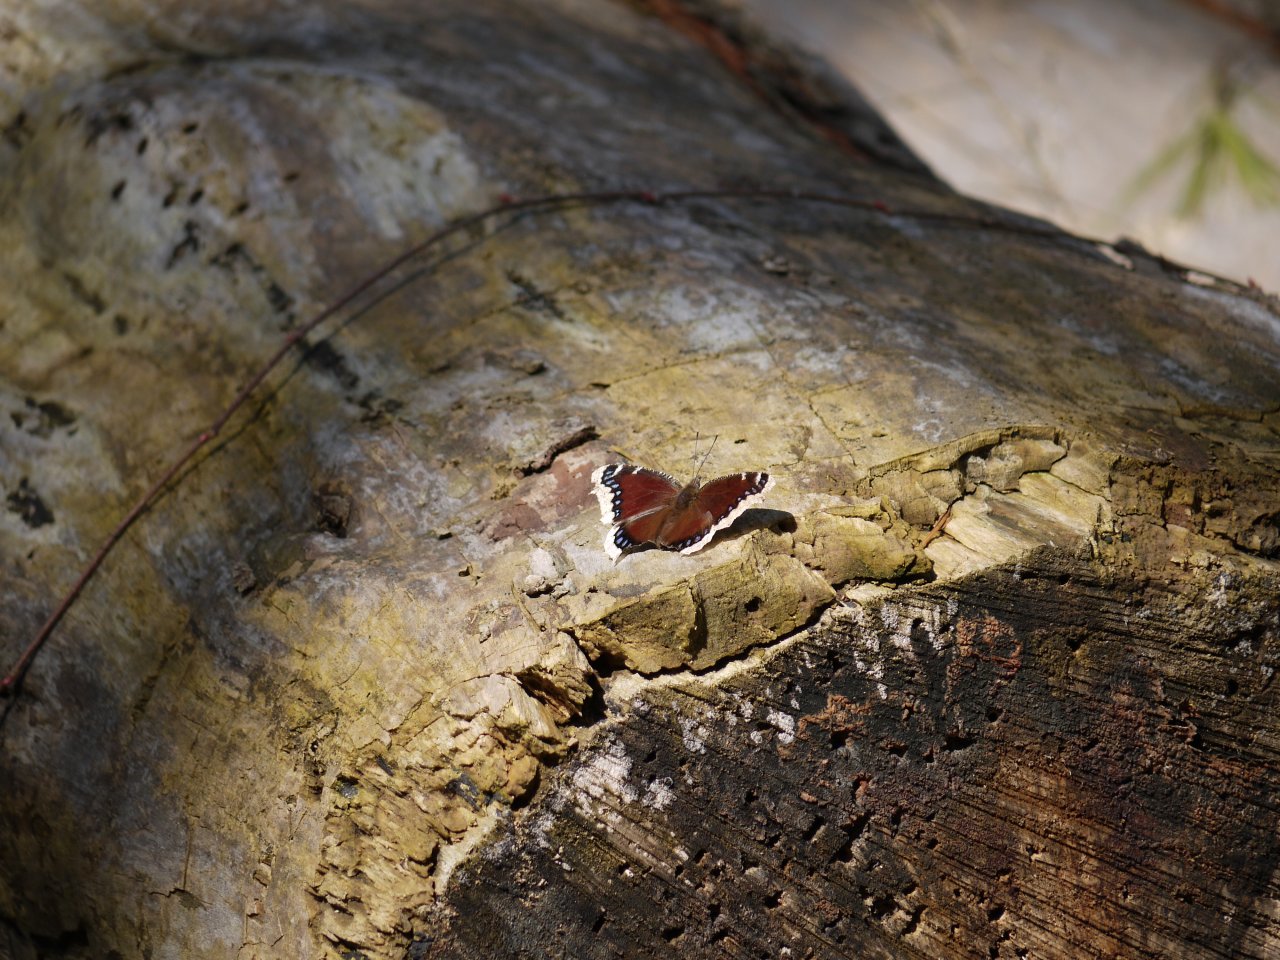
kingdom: Animalia
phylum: Arthropoda
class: Insecta
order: Lepidoptera
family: Nymphalidae
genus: Nymphalis
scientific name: Nymphalis antiopa
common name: Mourning Cloak
